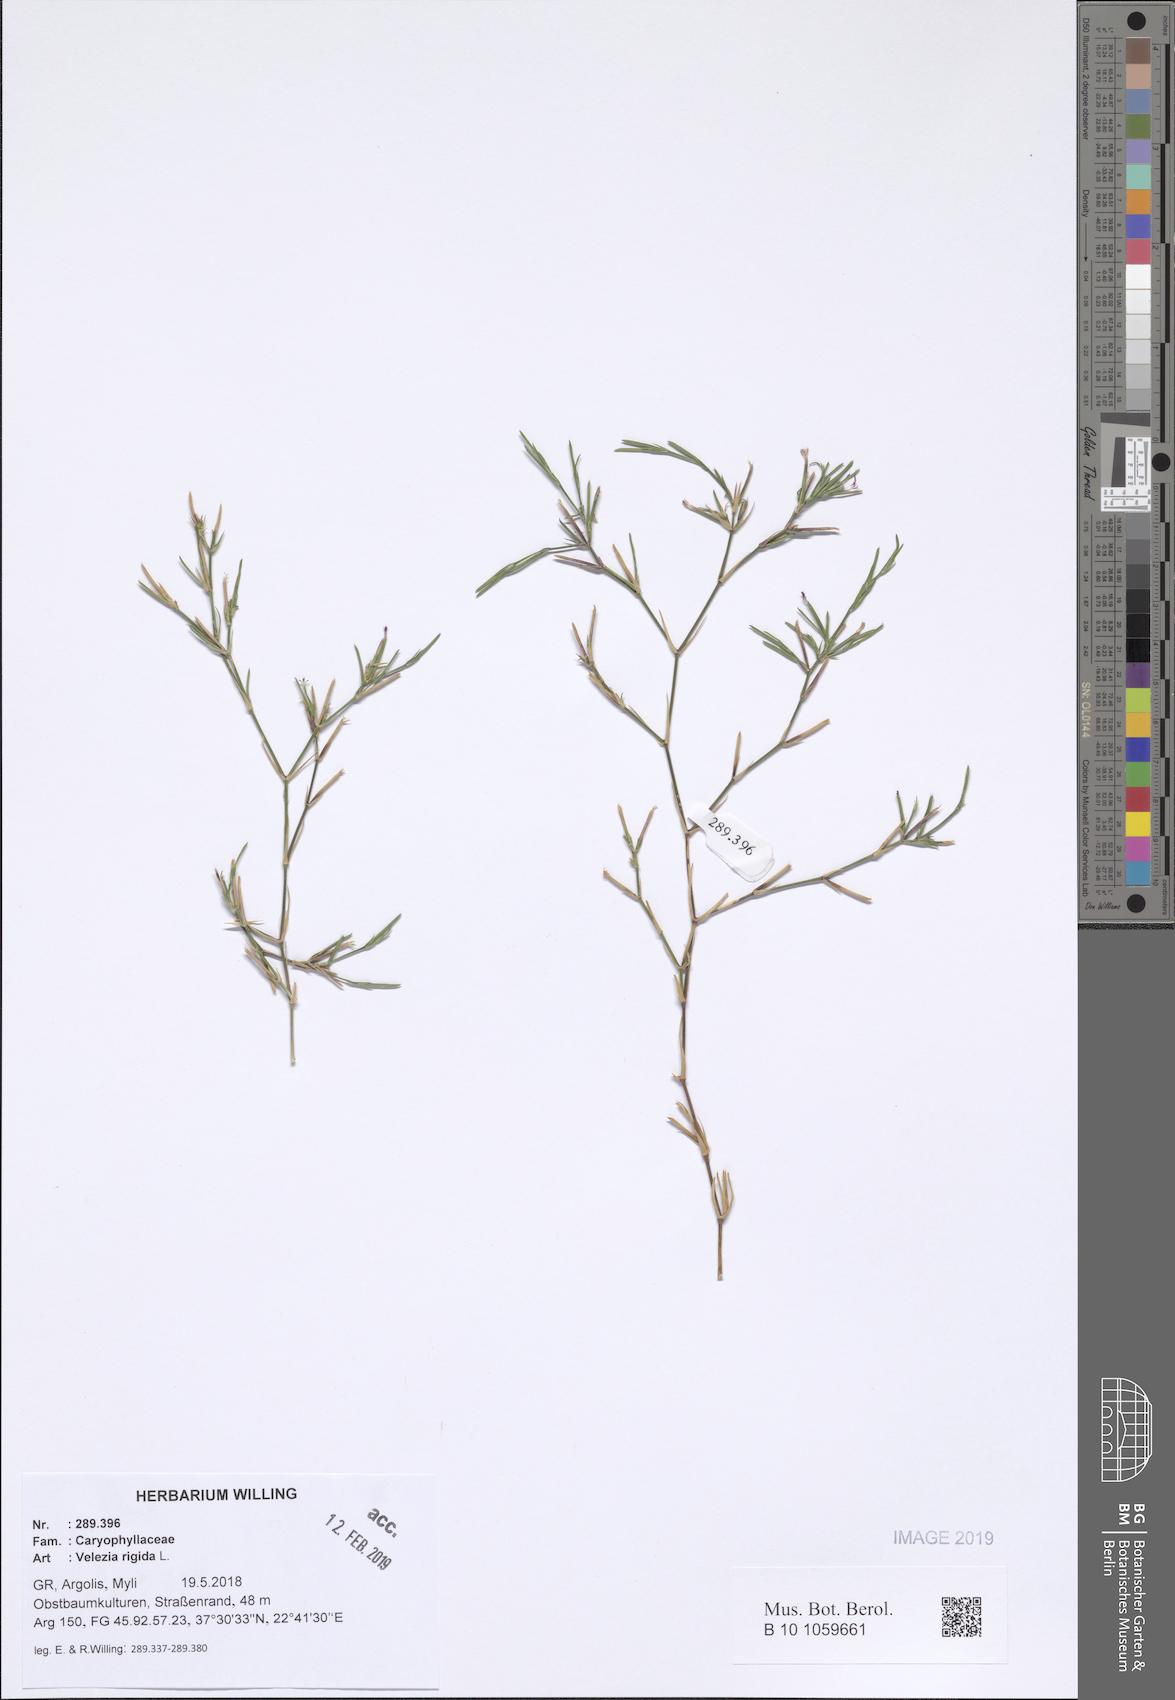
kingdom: Plantae
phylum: Tracheophyta
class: Magnoliopsida
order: Caryophyllales
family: Caryophyllaceae
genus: Dianthus
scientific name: Dianthus nudiflorus
